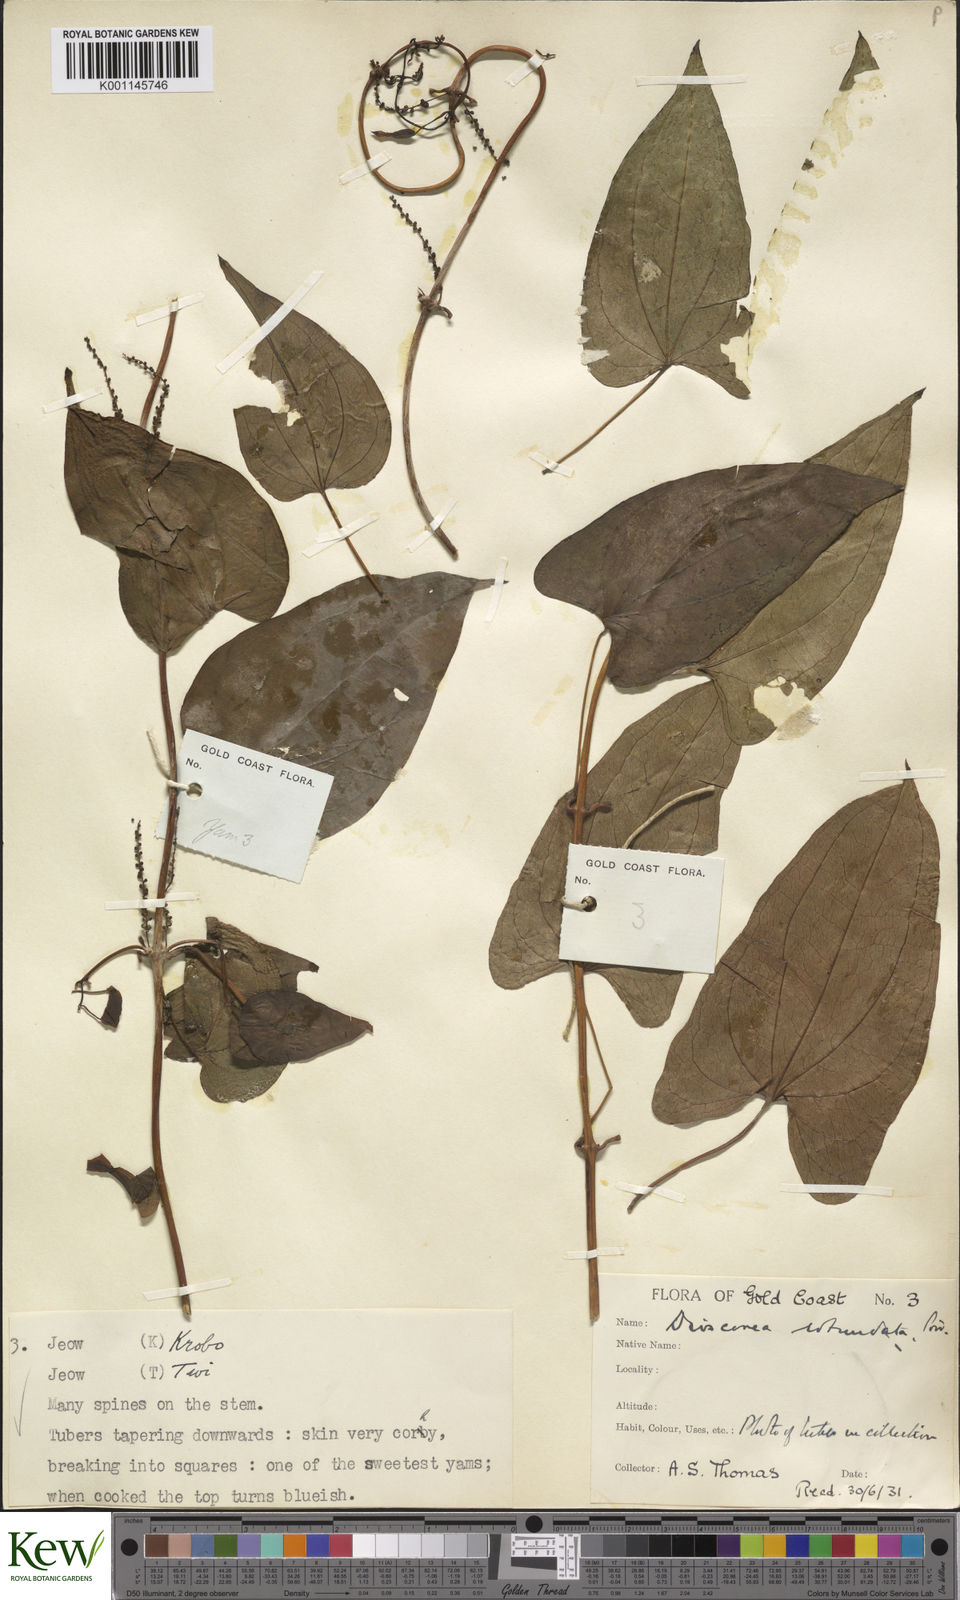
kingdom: Plantae
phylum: Tracheophyta
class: Liliopsida
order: Dioscoreales
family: Dioscoreaceae
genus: Dioscorea
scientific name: Dioscorea cayenensis
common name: Attoto yam
